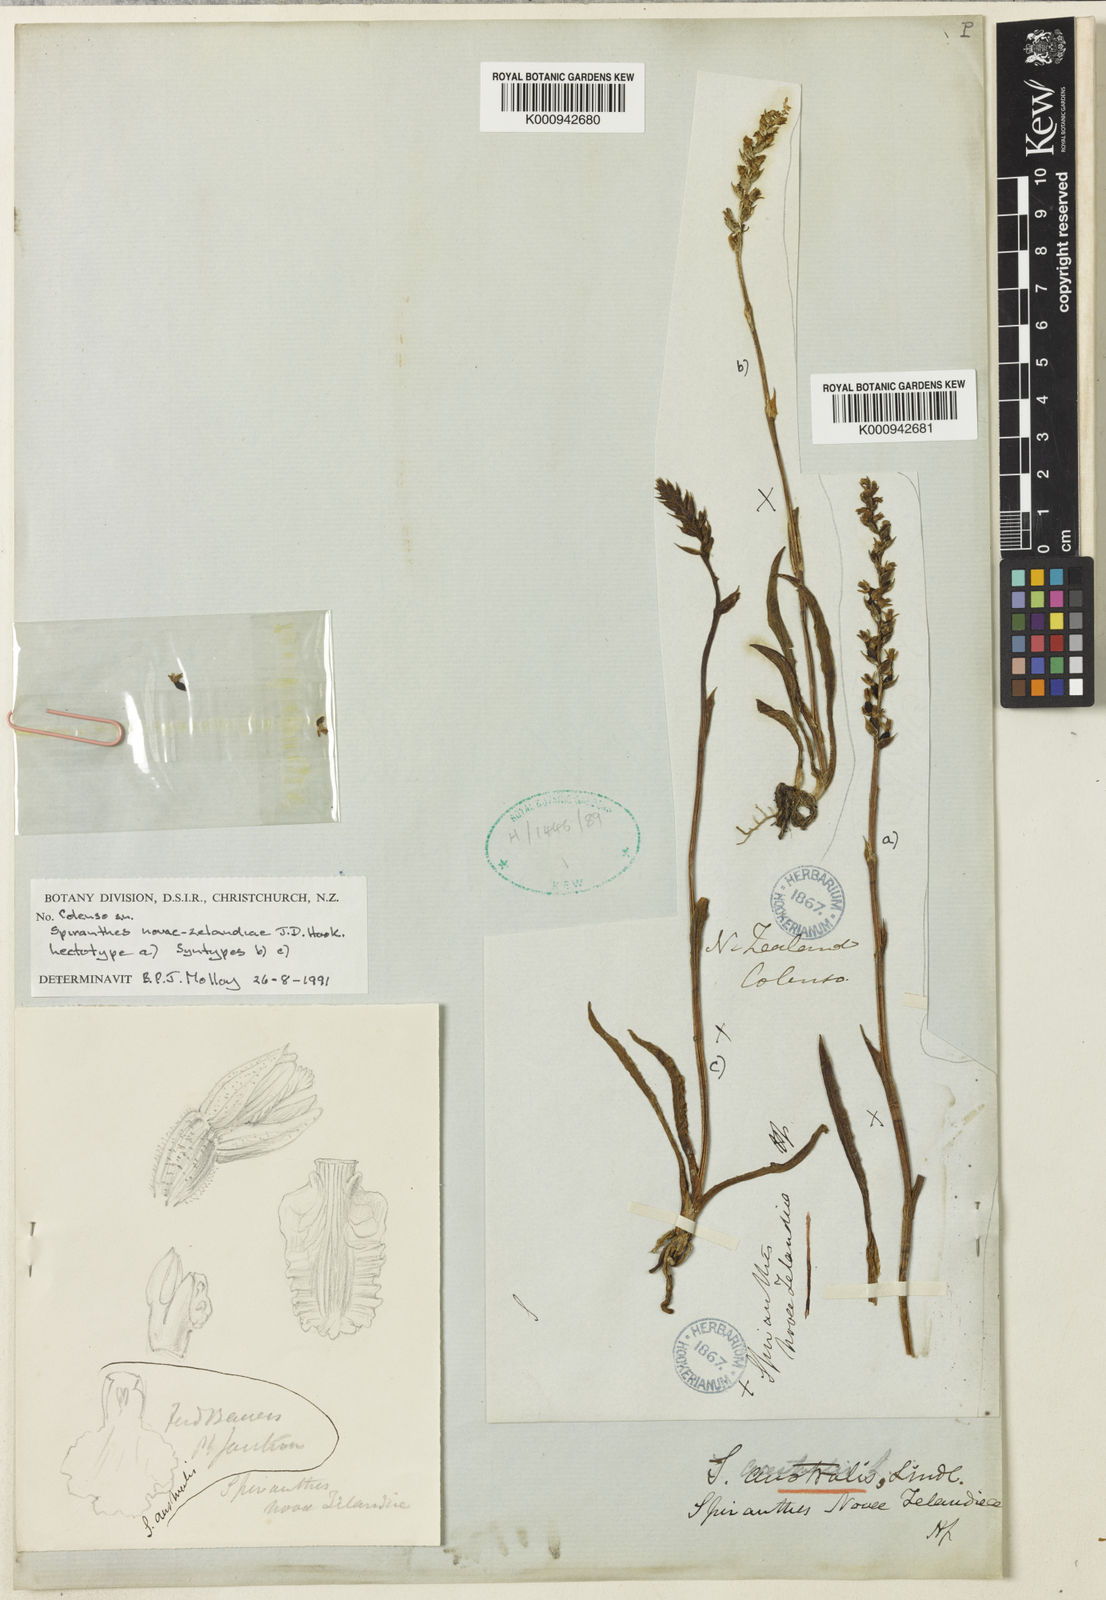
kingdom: Plantae
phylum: Tracheophyta
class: Liliopsida
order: Asparagales
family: Orchidaceae
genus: Spiranthes
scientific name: Spiranthes australis
